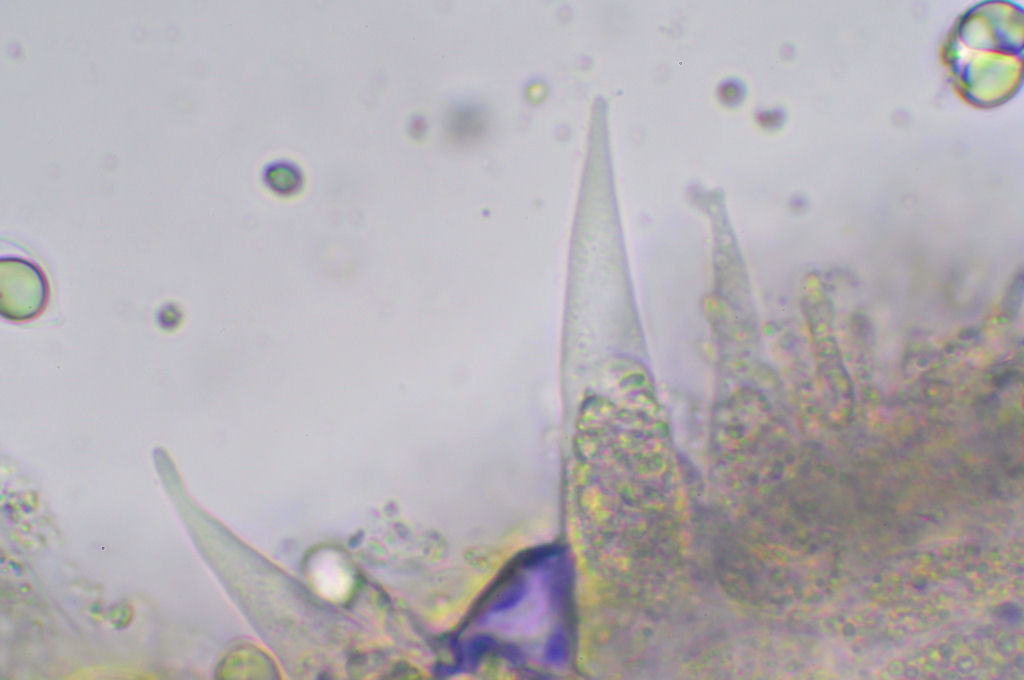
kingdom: Fungi
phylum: Basidiomycota
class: Agaricomycetes
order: Agaricales
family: Mycenaceae
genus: Mycena
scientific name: Mycena erubescens
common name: galde-huesvamp
